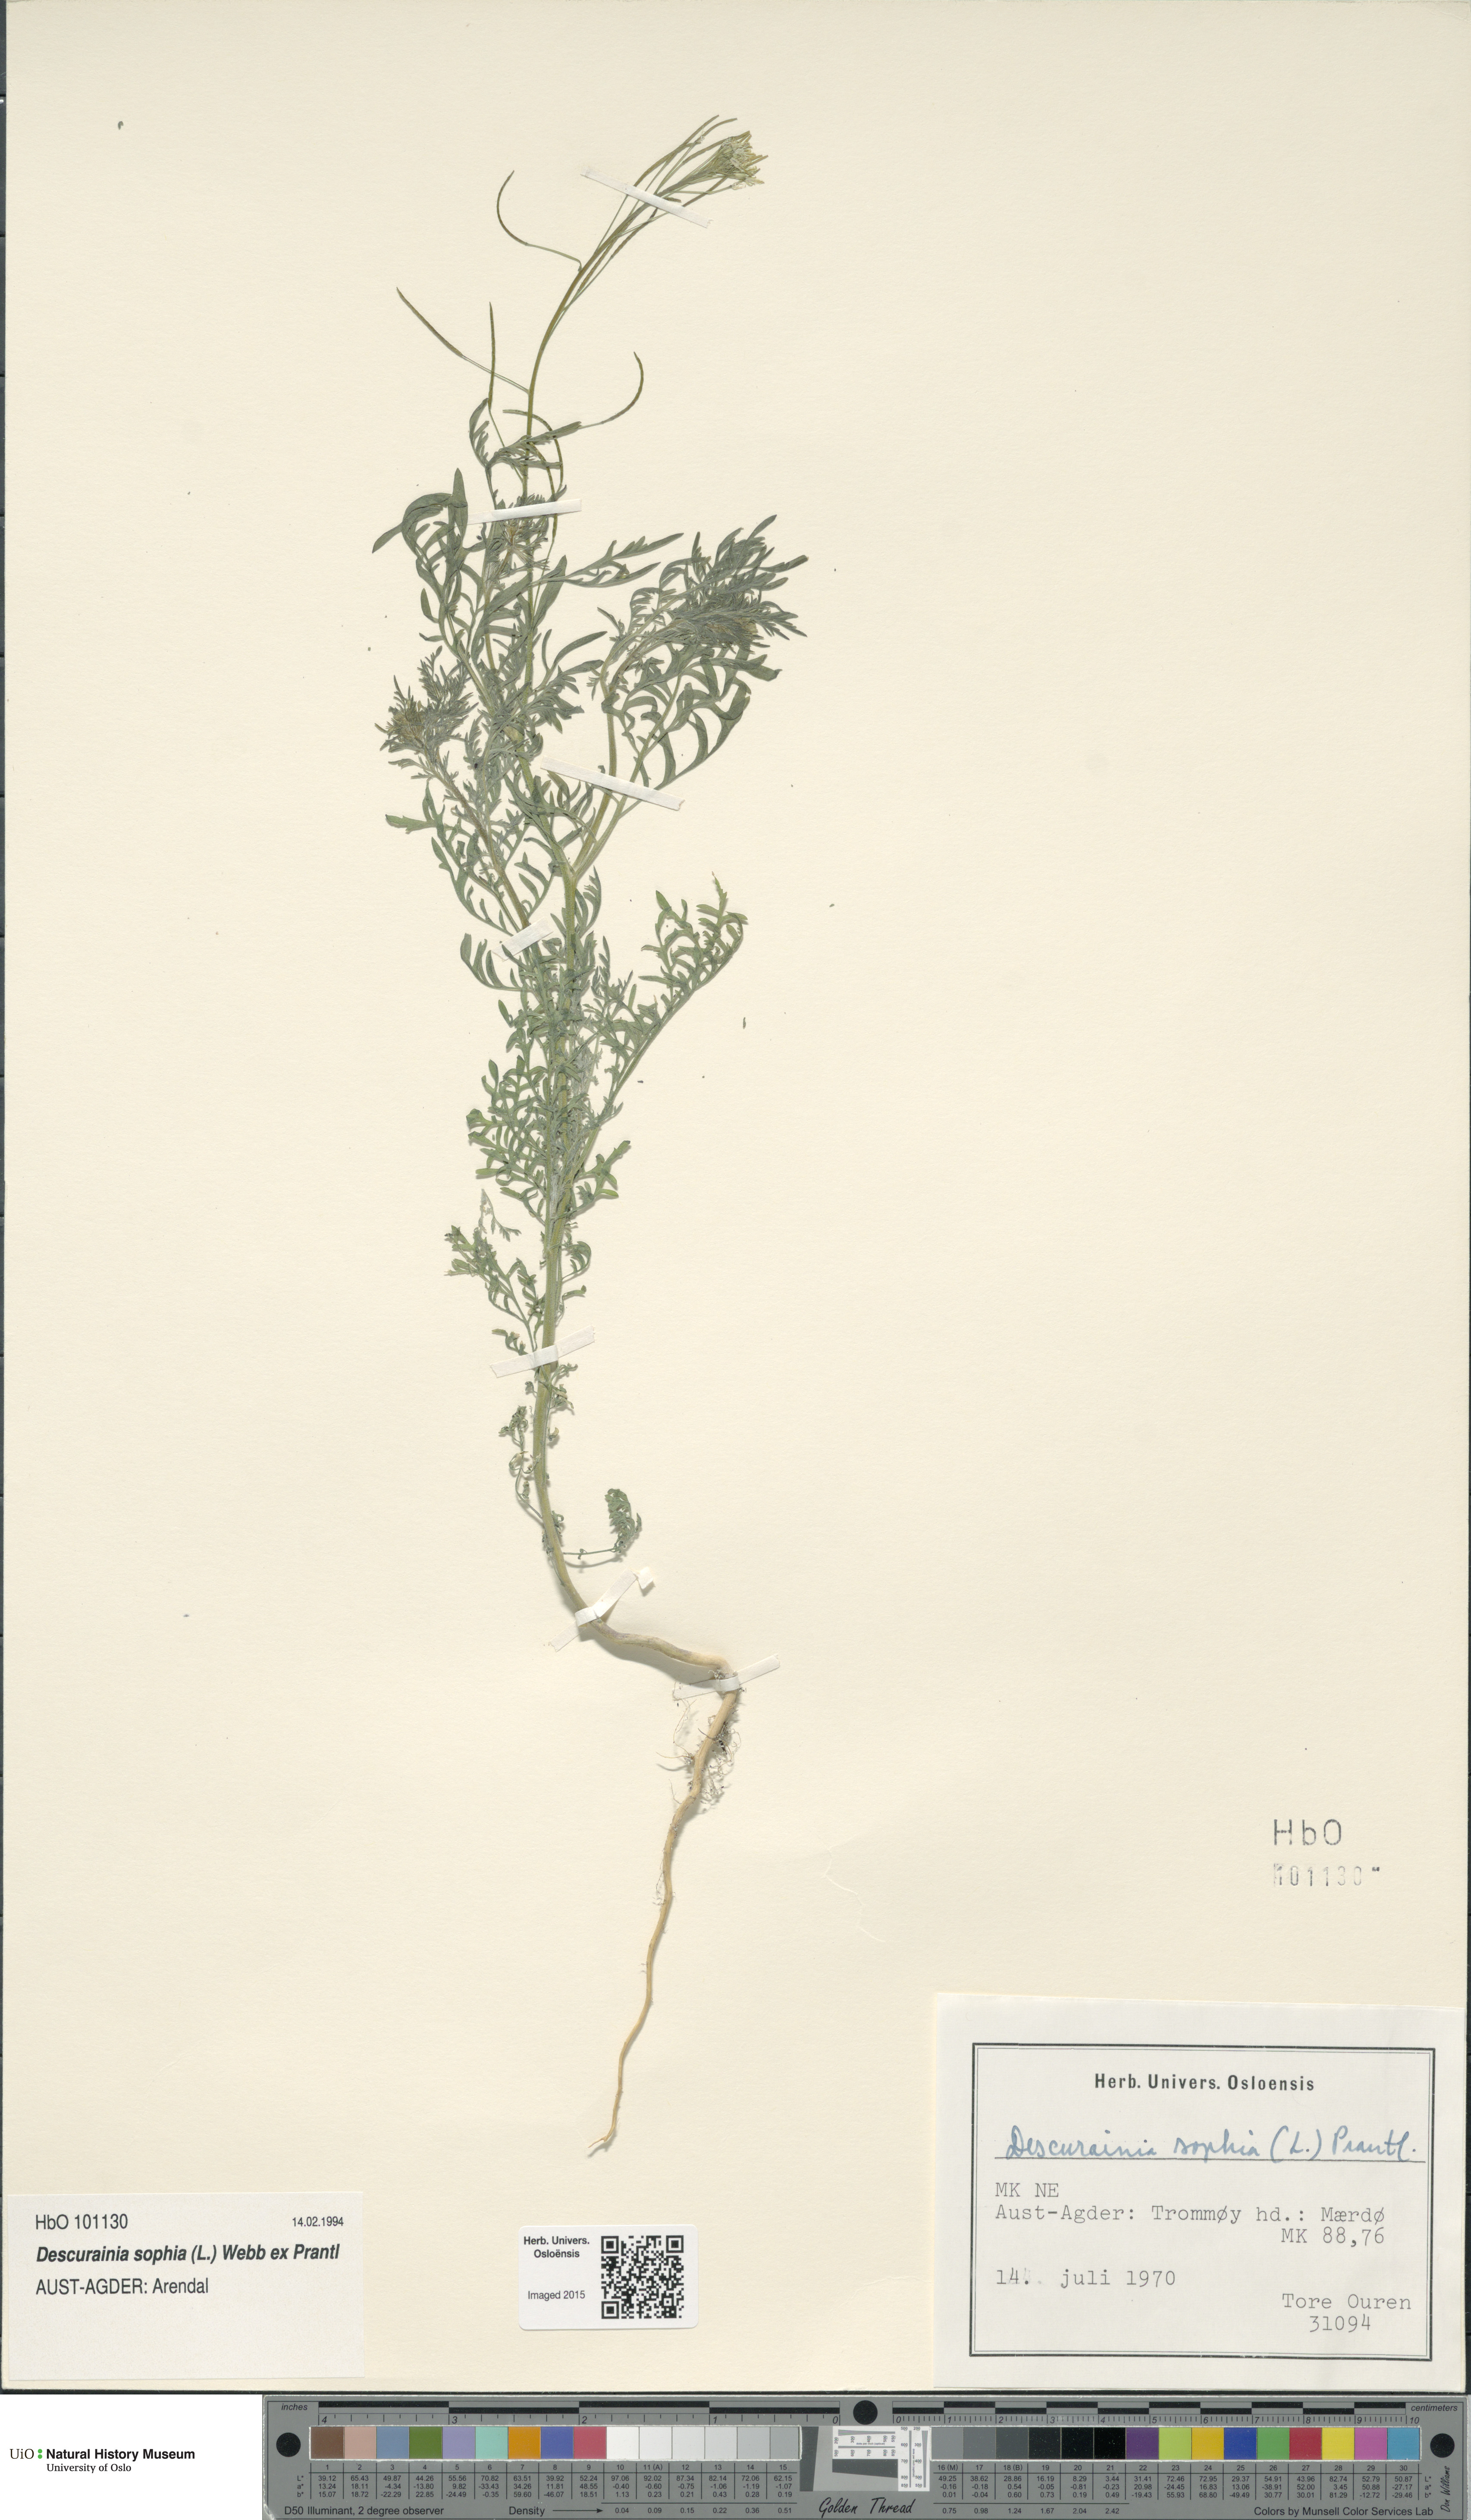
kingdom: Plantae
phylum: Tracheophyta
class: Magnoliopsida
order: Brassicales
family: Brassicaceae
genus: Descurainia
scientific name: Descurainia sophia
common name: Flixweed
